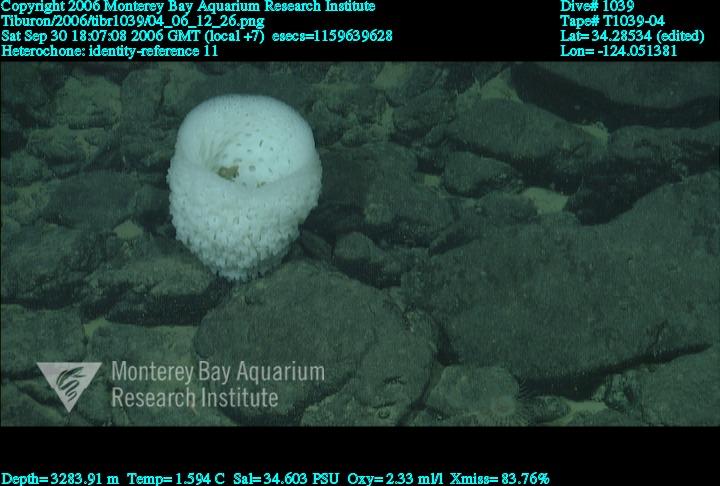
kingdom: Animalia
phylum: Porifera
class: Hexactinellida
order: Sceptrulophora
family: Aphrocallistidae
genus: Heterochone
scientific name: Heterochone
